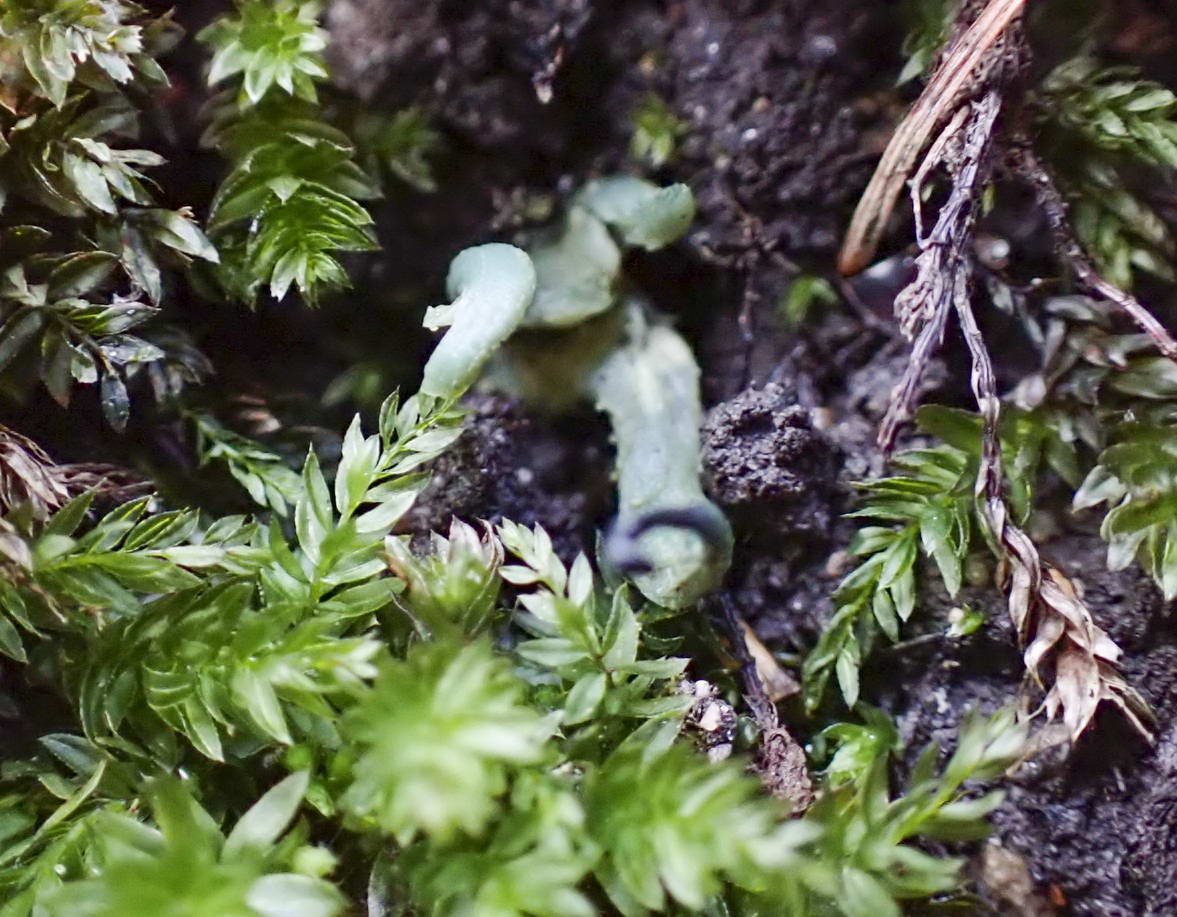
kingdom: Fungi
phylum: Ascomycota
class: Leotiomycetes
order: Leotiales
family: Leotiaceae
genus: Microglossum
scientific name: Microglossum griseoviride
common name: grågrøn farvetunge
